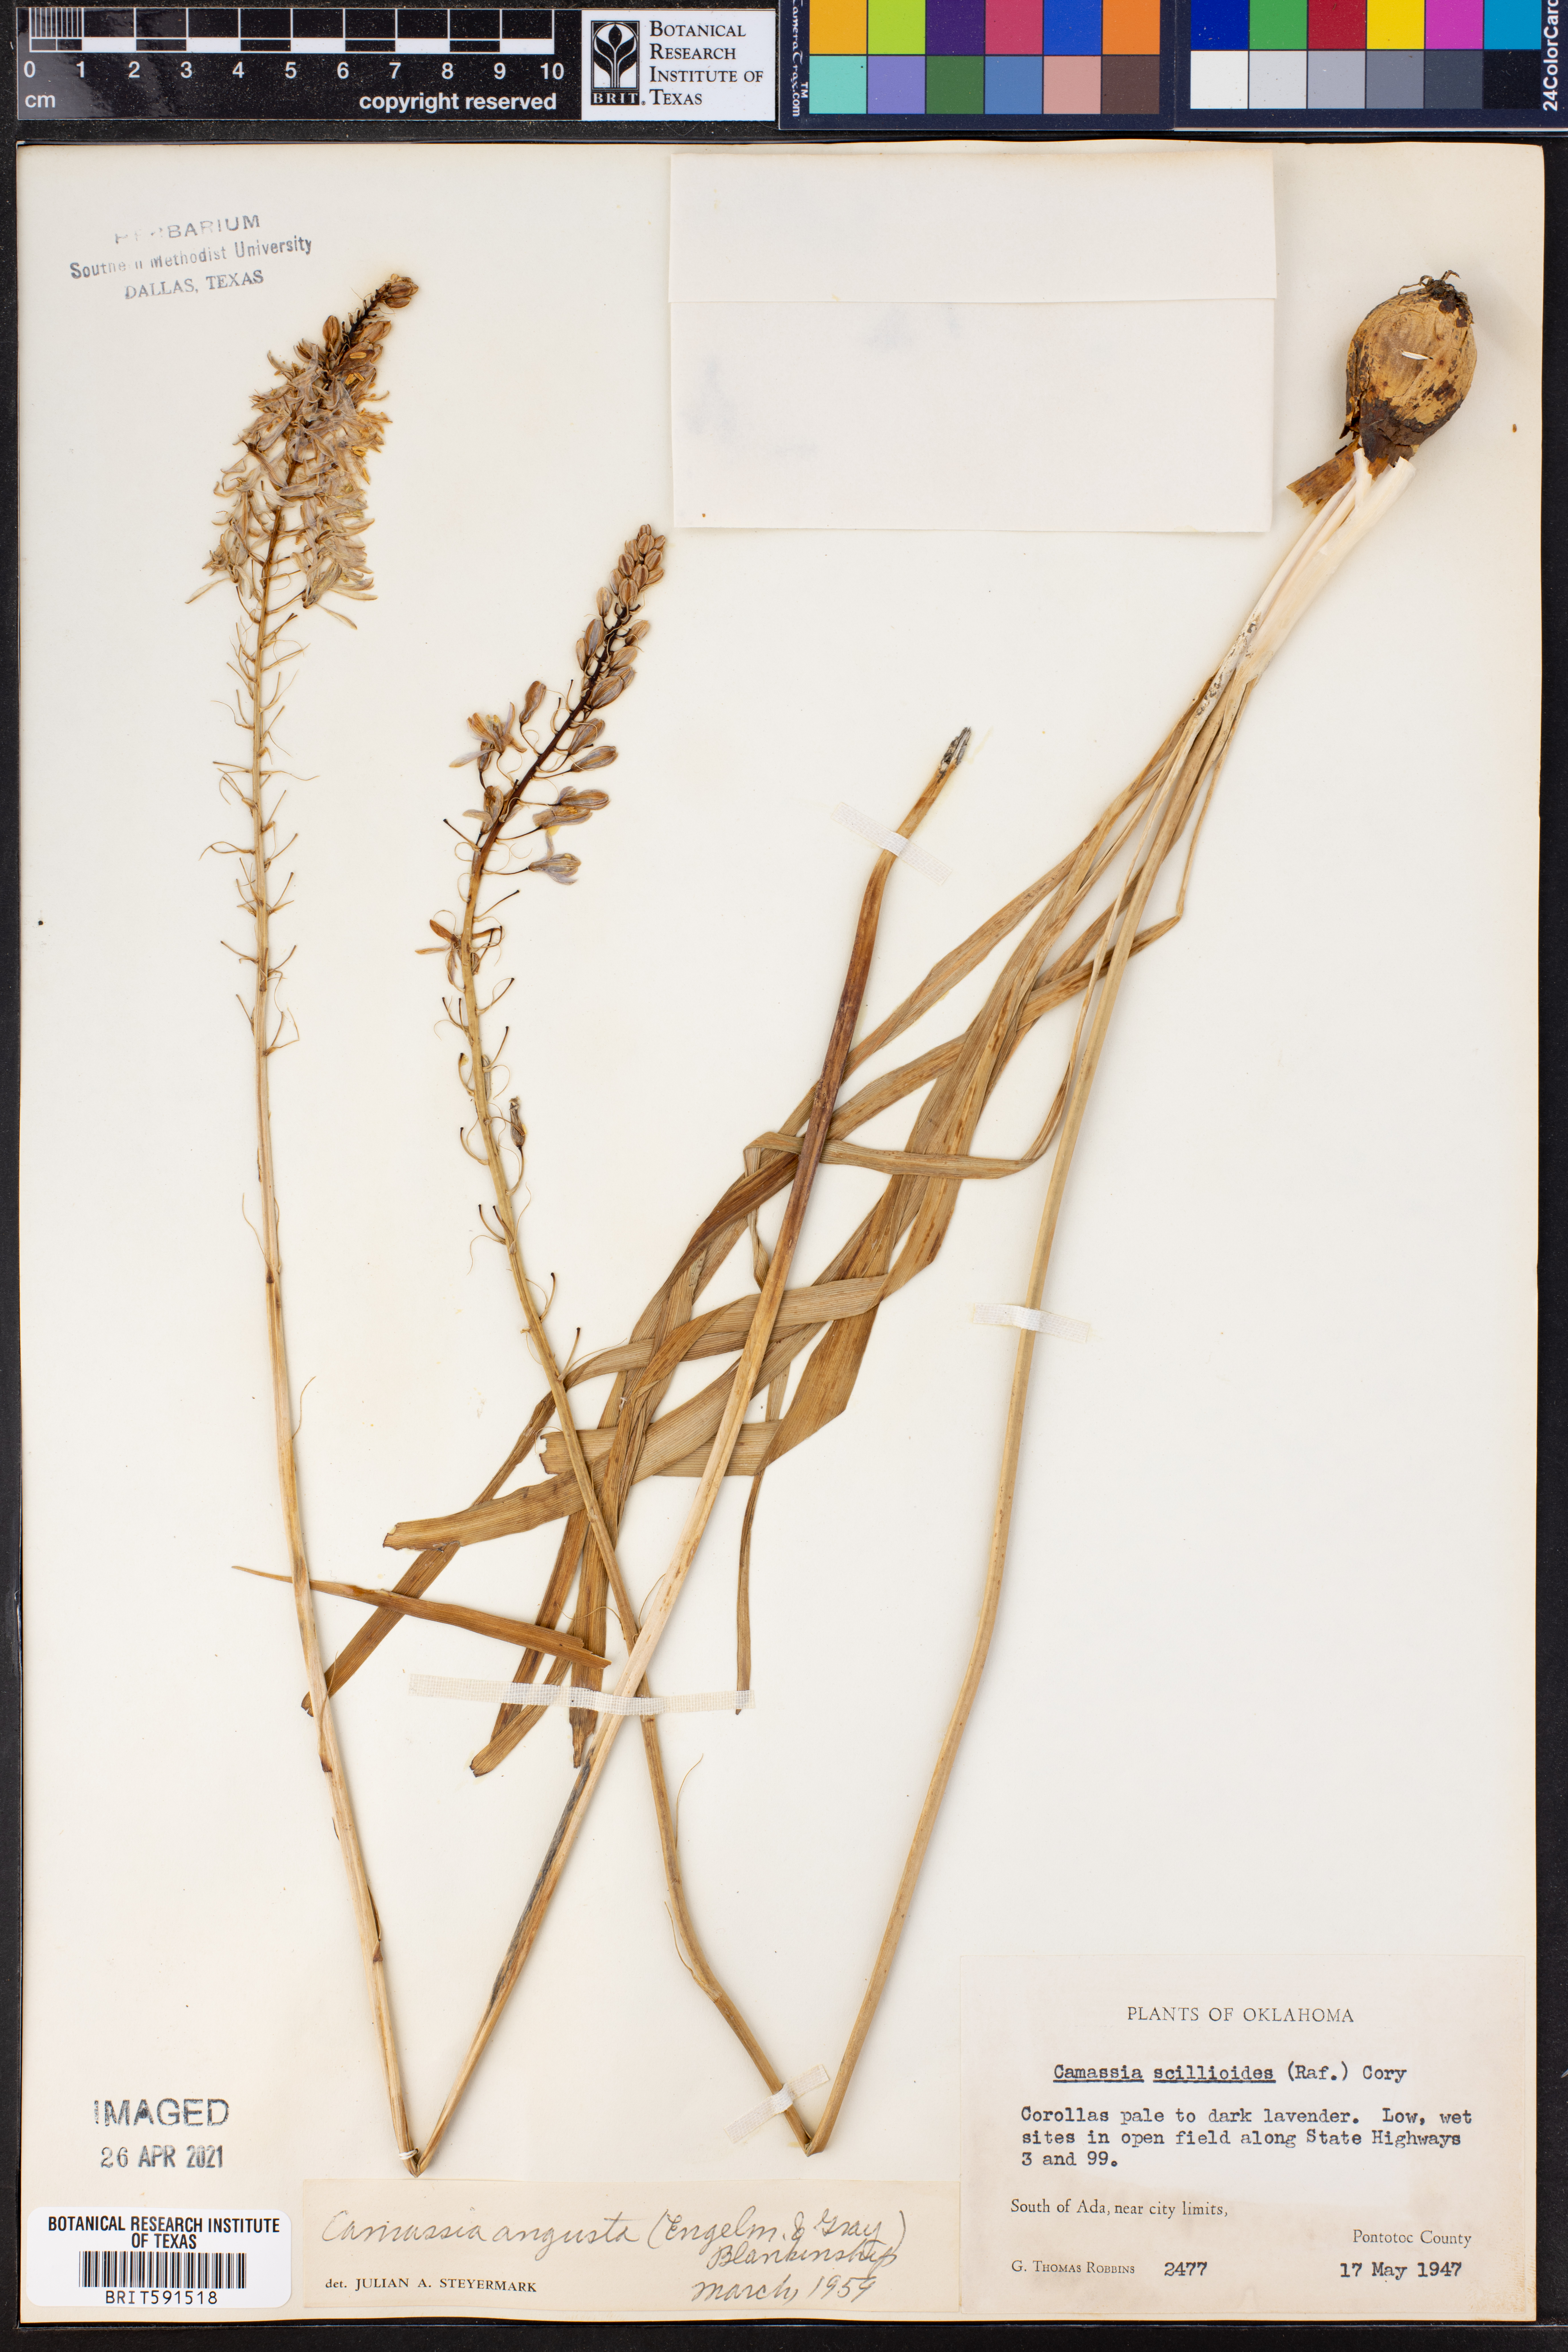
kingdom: Plantae
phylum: Tracheophyta
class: Liliopsida
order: Asparagales
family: Asparagaceae
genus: Camassia
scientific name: Camassia angusta
